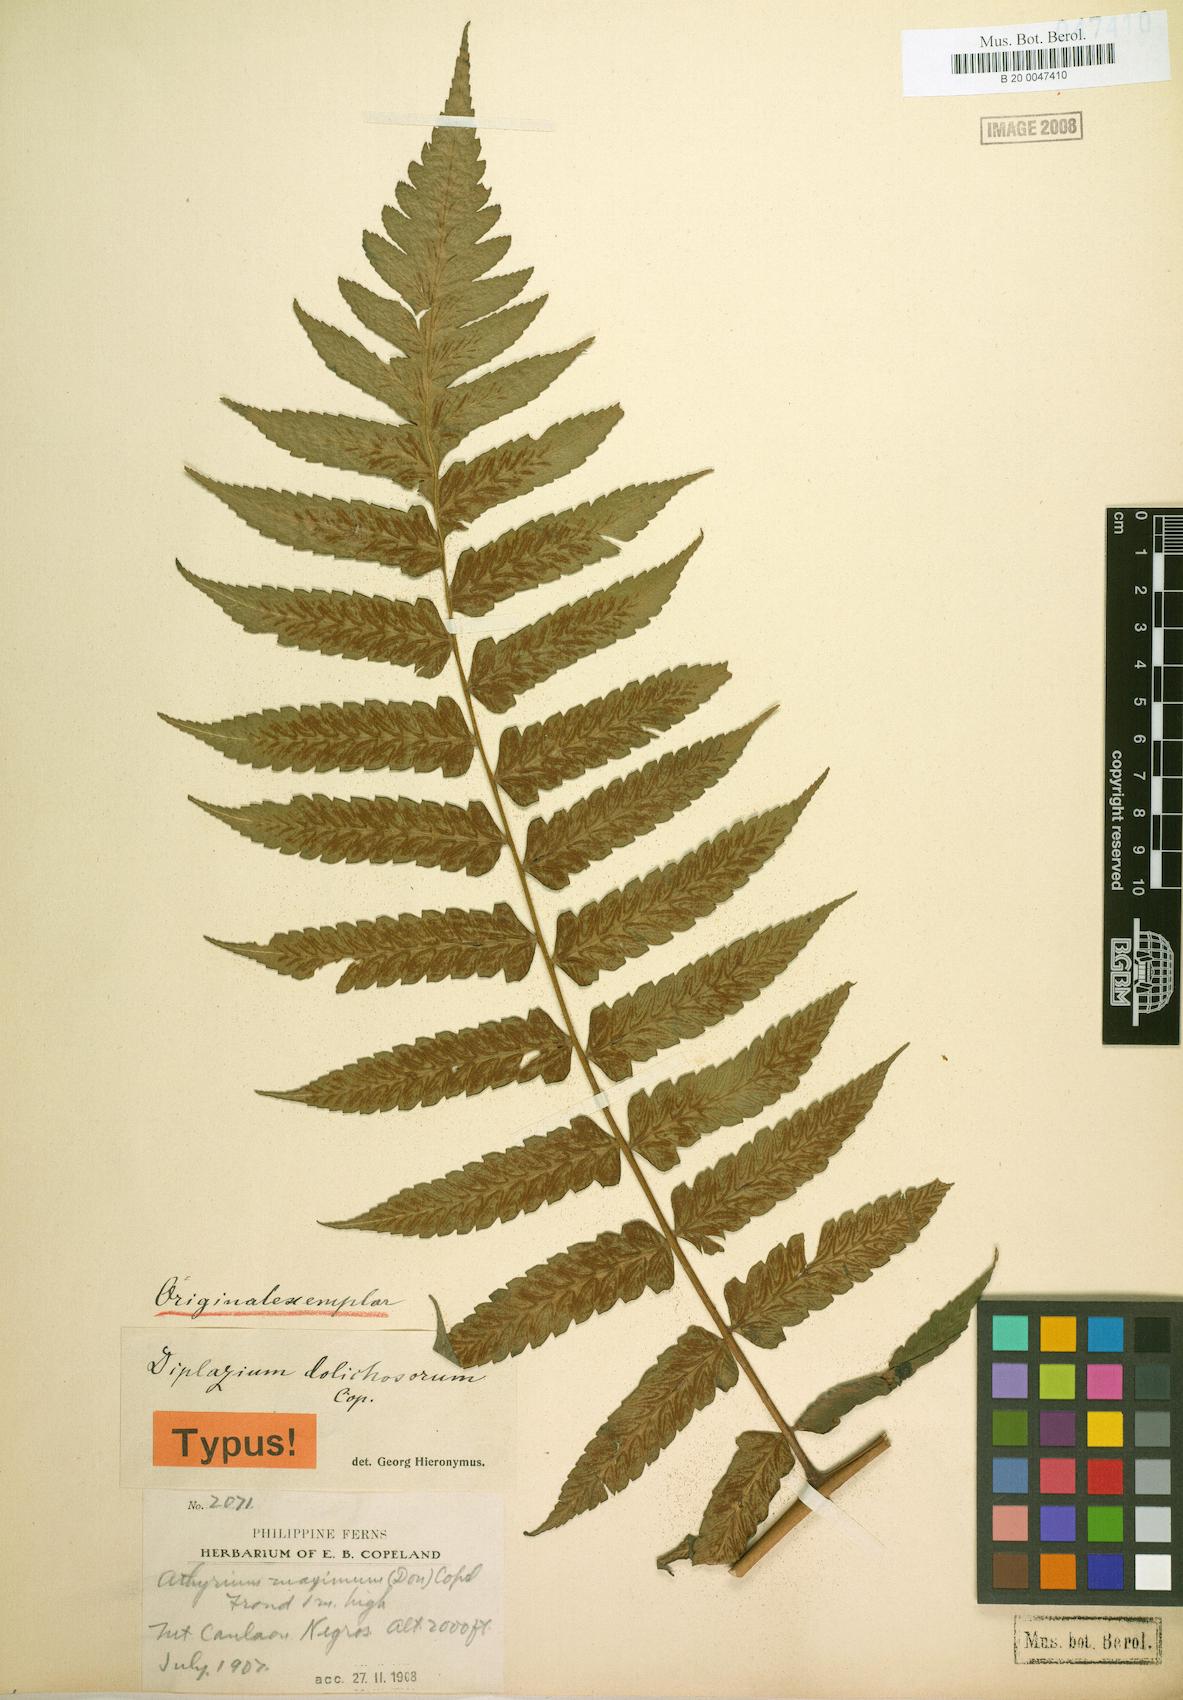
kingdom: Plantae
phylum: Tracheophyta
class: Polypodiopsida
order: Polypodiales
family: Athyriaceae
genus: Diplazium
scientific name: Diplazium dilatatum
